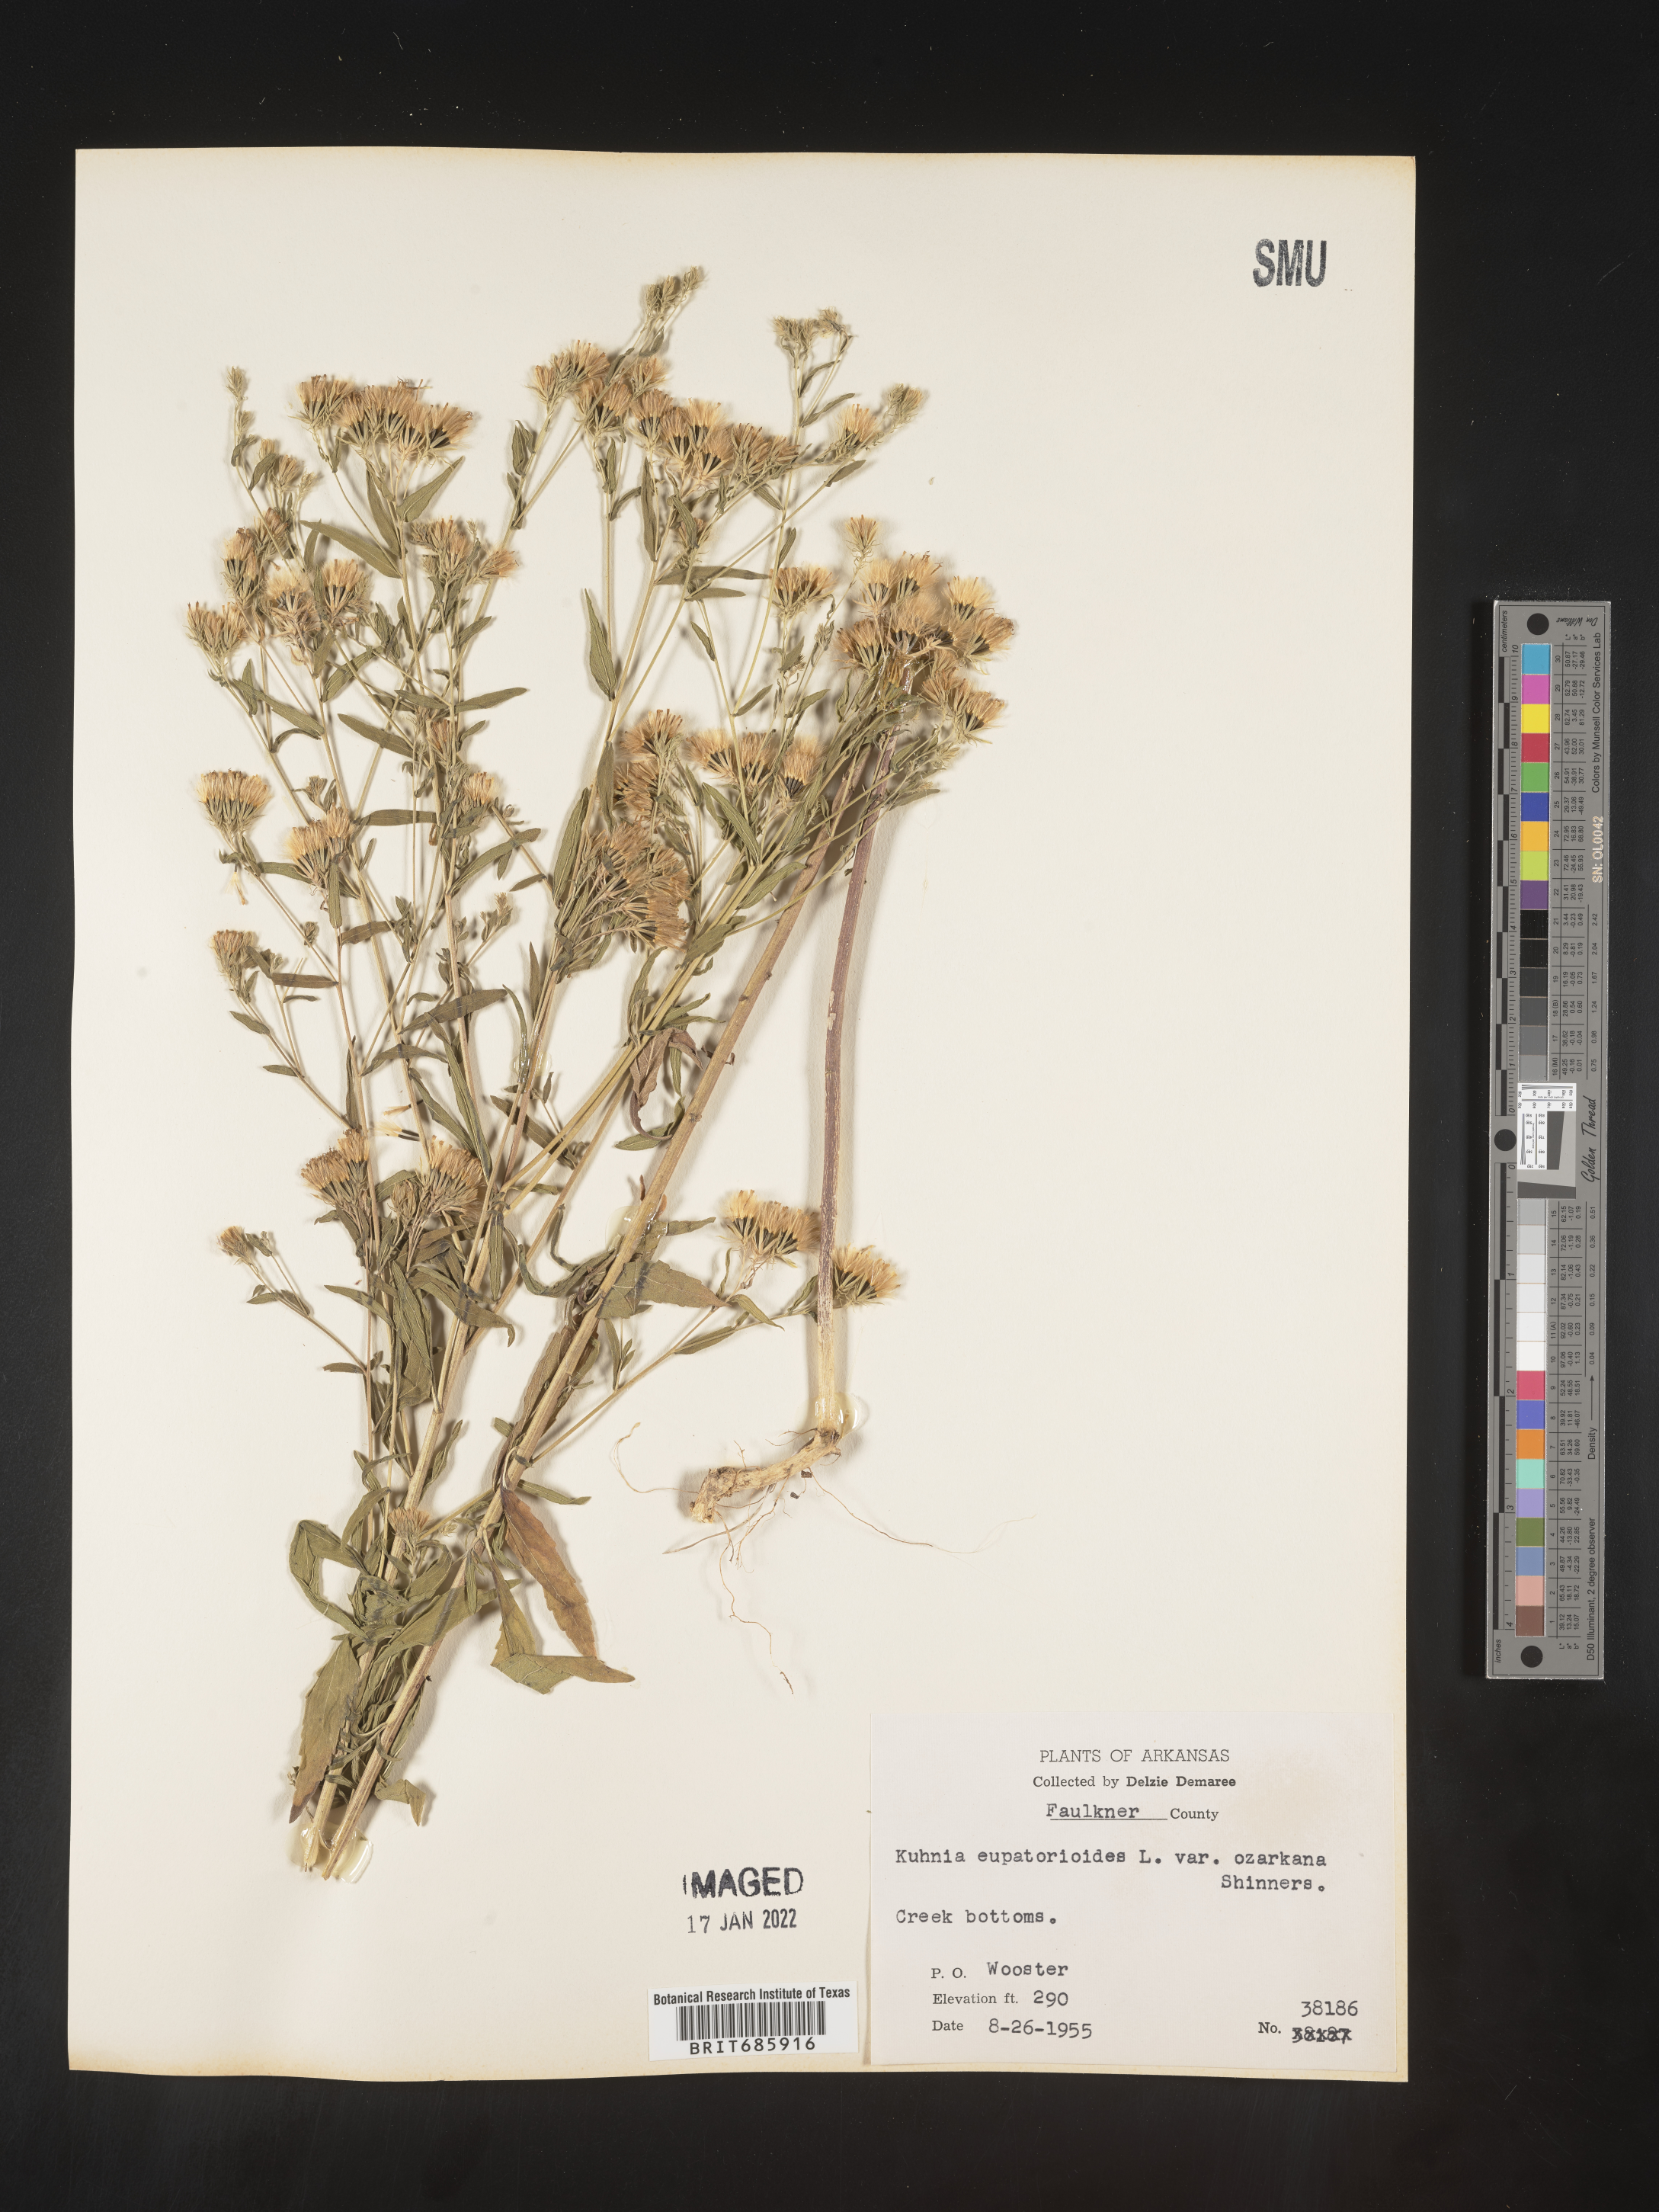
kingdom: Plantae
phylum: Tracheophyta
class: Magnoliopsida
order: Asterales
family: Asteraceae
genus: Brickellia
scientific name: Brickellia ozarkana
